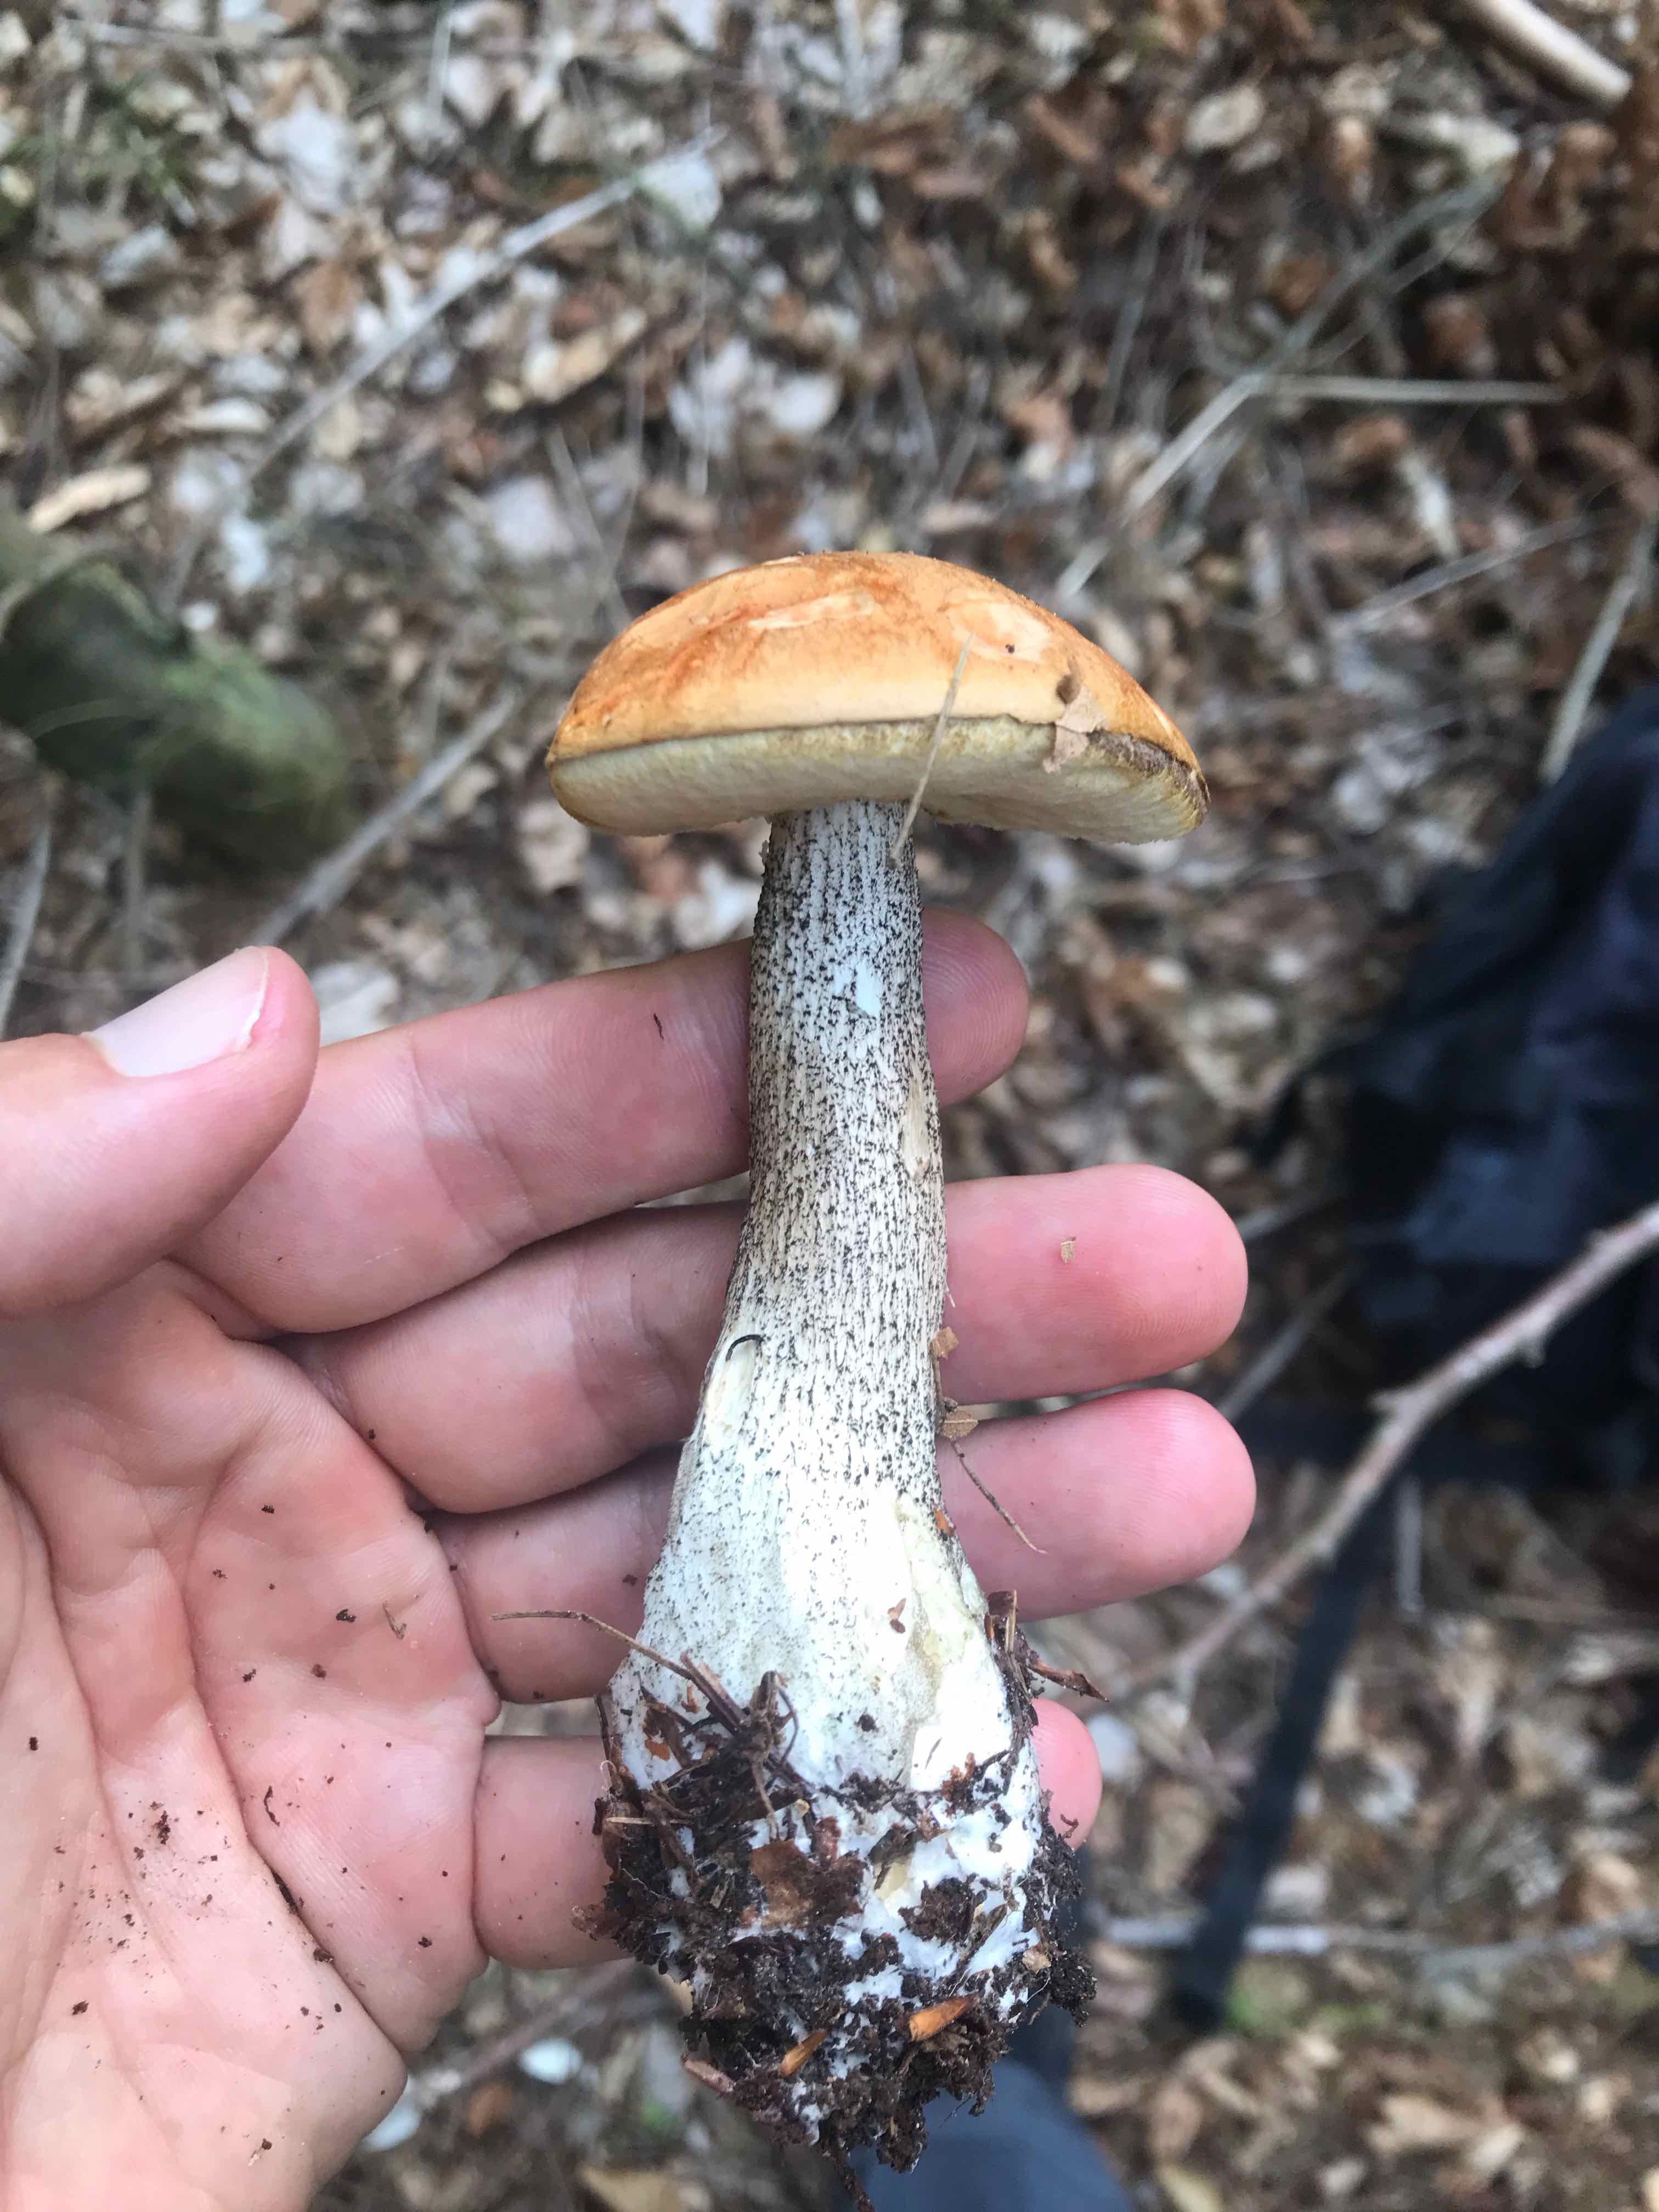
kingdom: Fungi
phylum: Basidiomycota
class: Agaricomycetes
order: Boletales
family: Boletaceae
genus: Leccinum
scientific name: Leccinum versipelle
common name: orange skælrørhat
